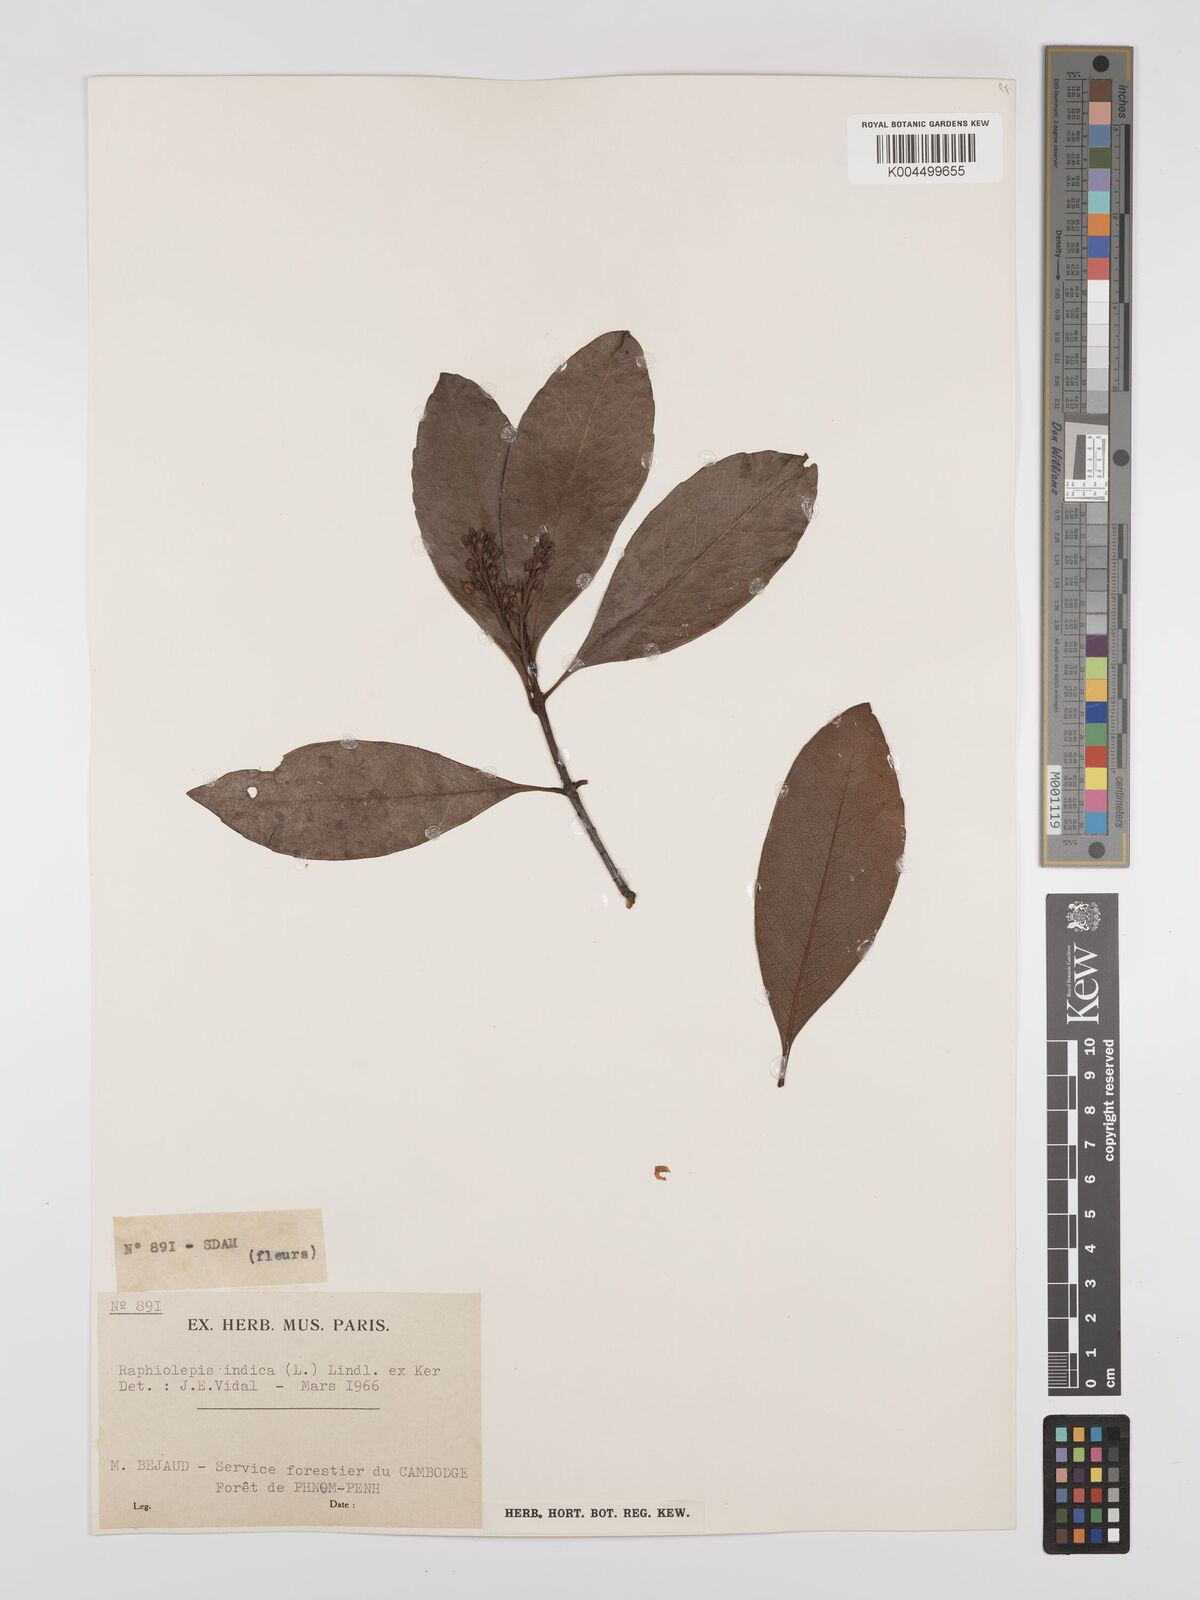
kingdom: Plantae
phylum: Tracheophyta
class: Magnoliopsida
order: Rosales
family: Rosaceae
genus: Rhaphiolepis
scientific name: Rhaphiolepis indica
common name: India-hawthorn
